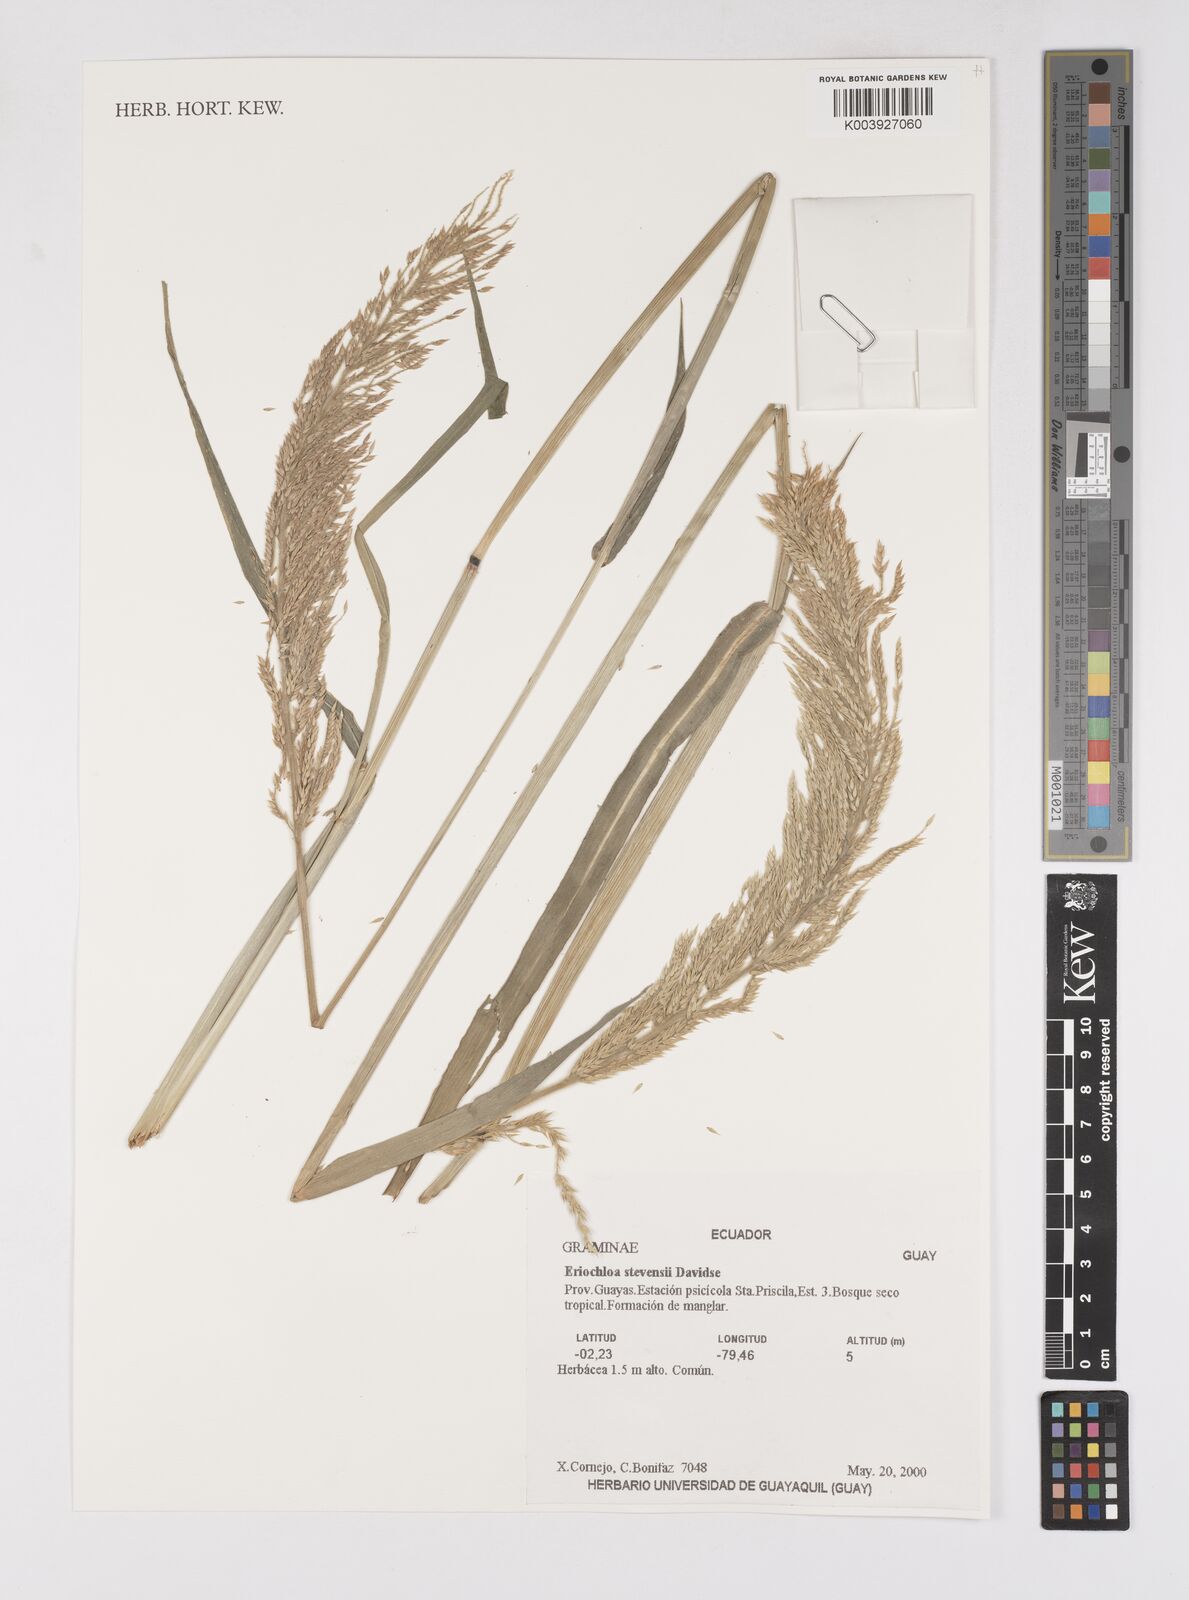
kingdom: Plantae
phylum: Tracheophyta
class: Liliopsida
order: Poales
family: Poaceae
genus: Eriochloa
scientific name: Eriochloa stevensii
